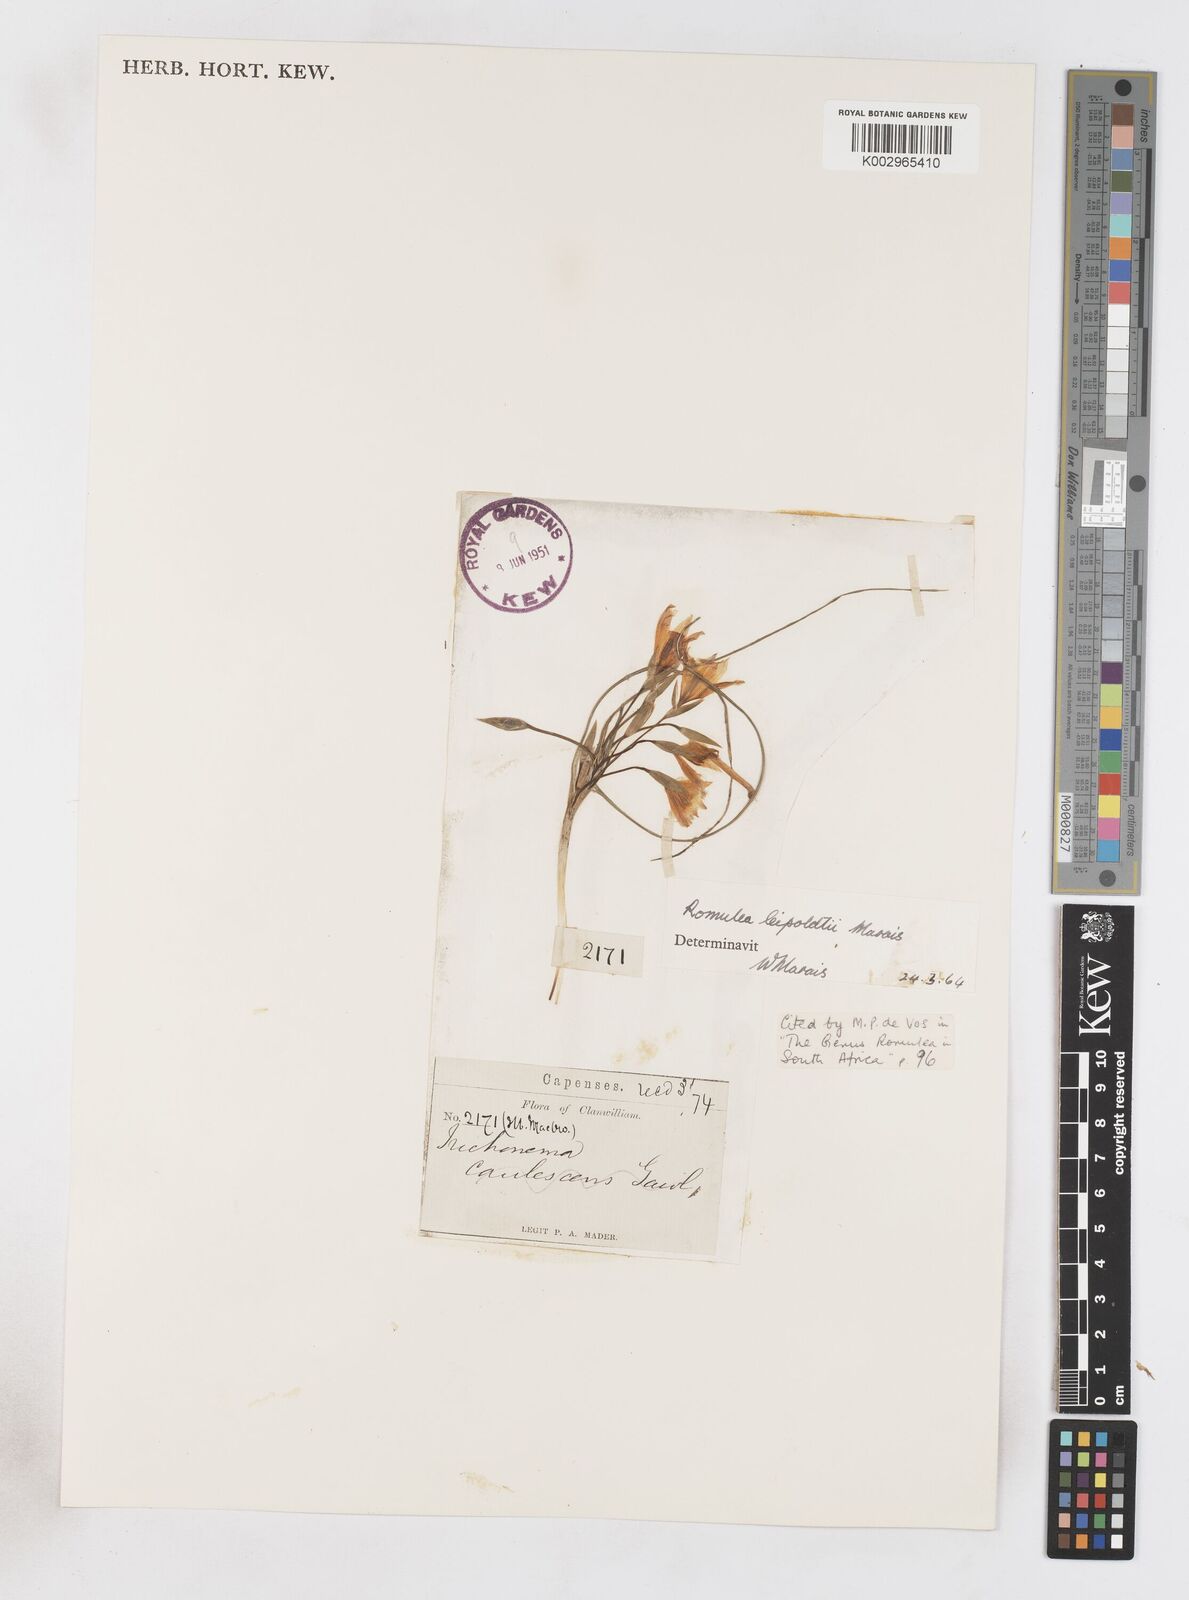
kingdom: Plantae
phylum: Tracheophyta
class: Liliopsida
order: Asparagales
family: Iridaceae
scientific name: Iridaceae
